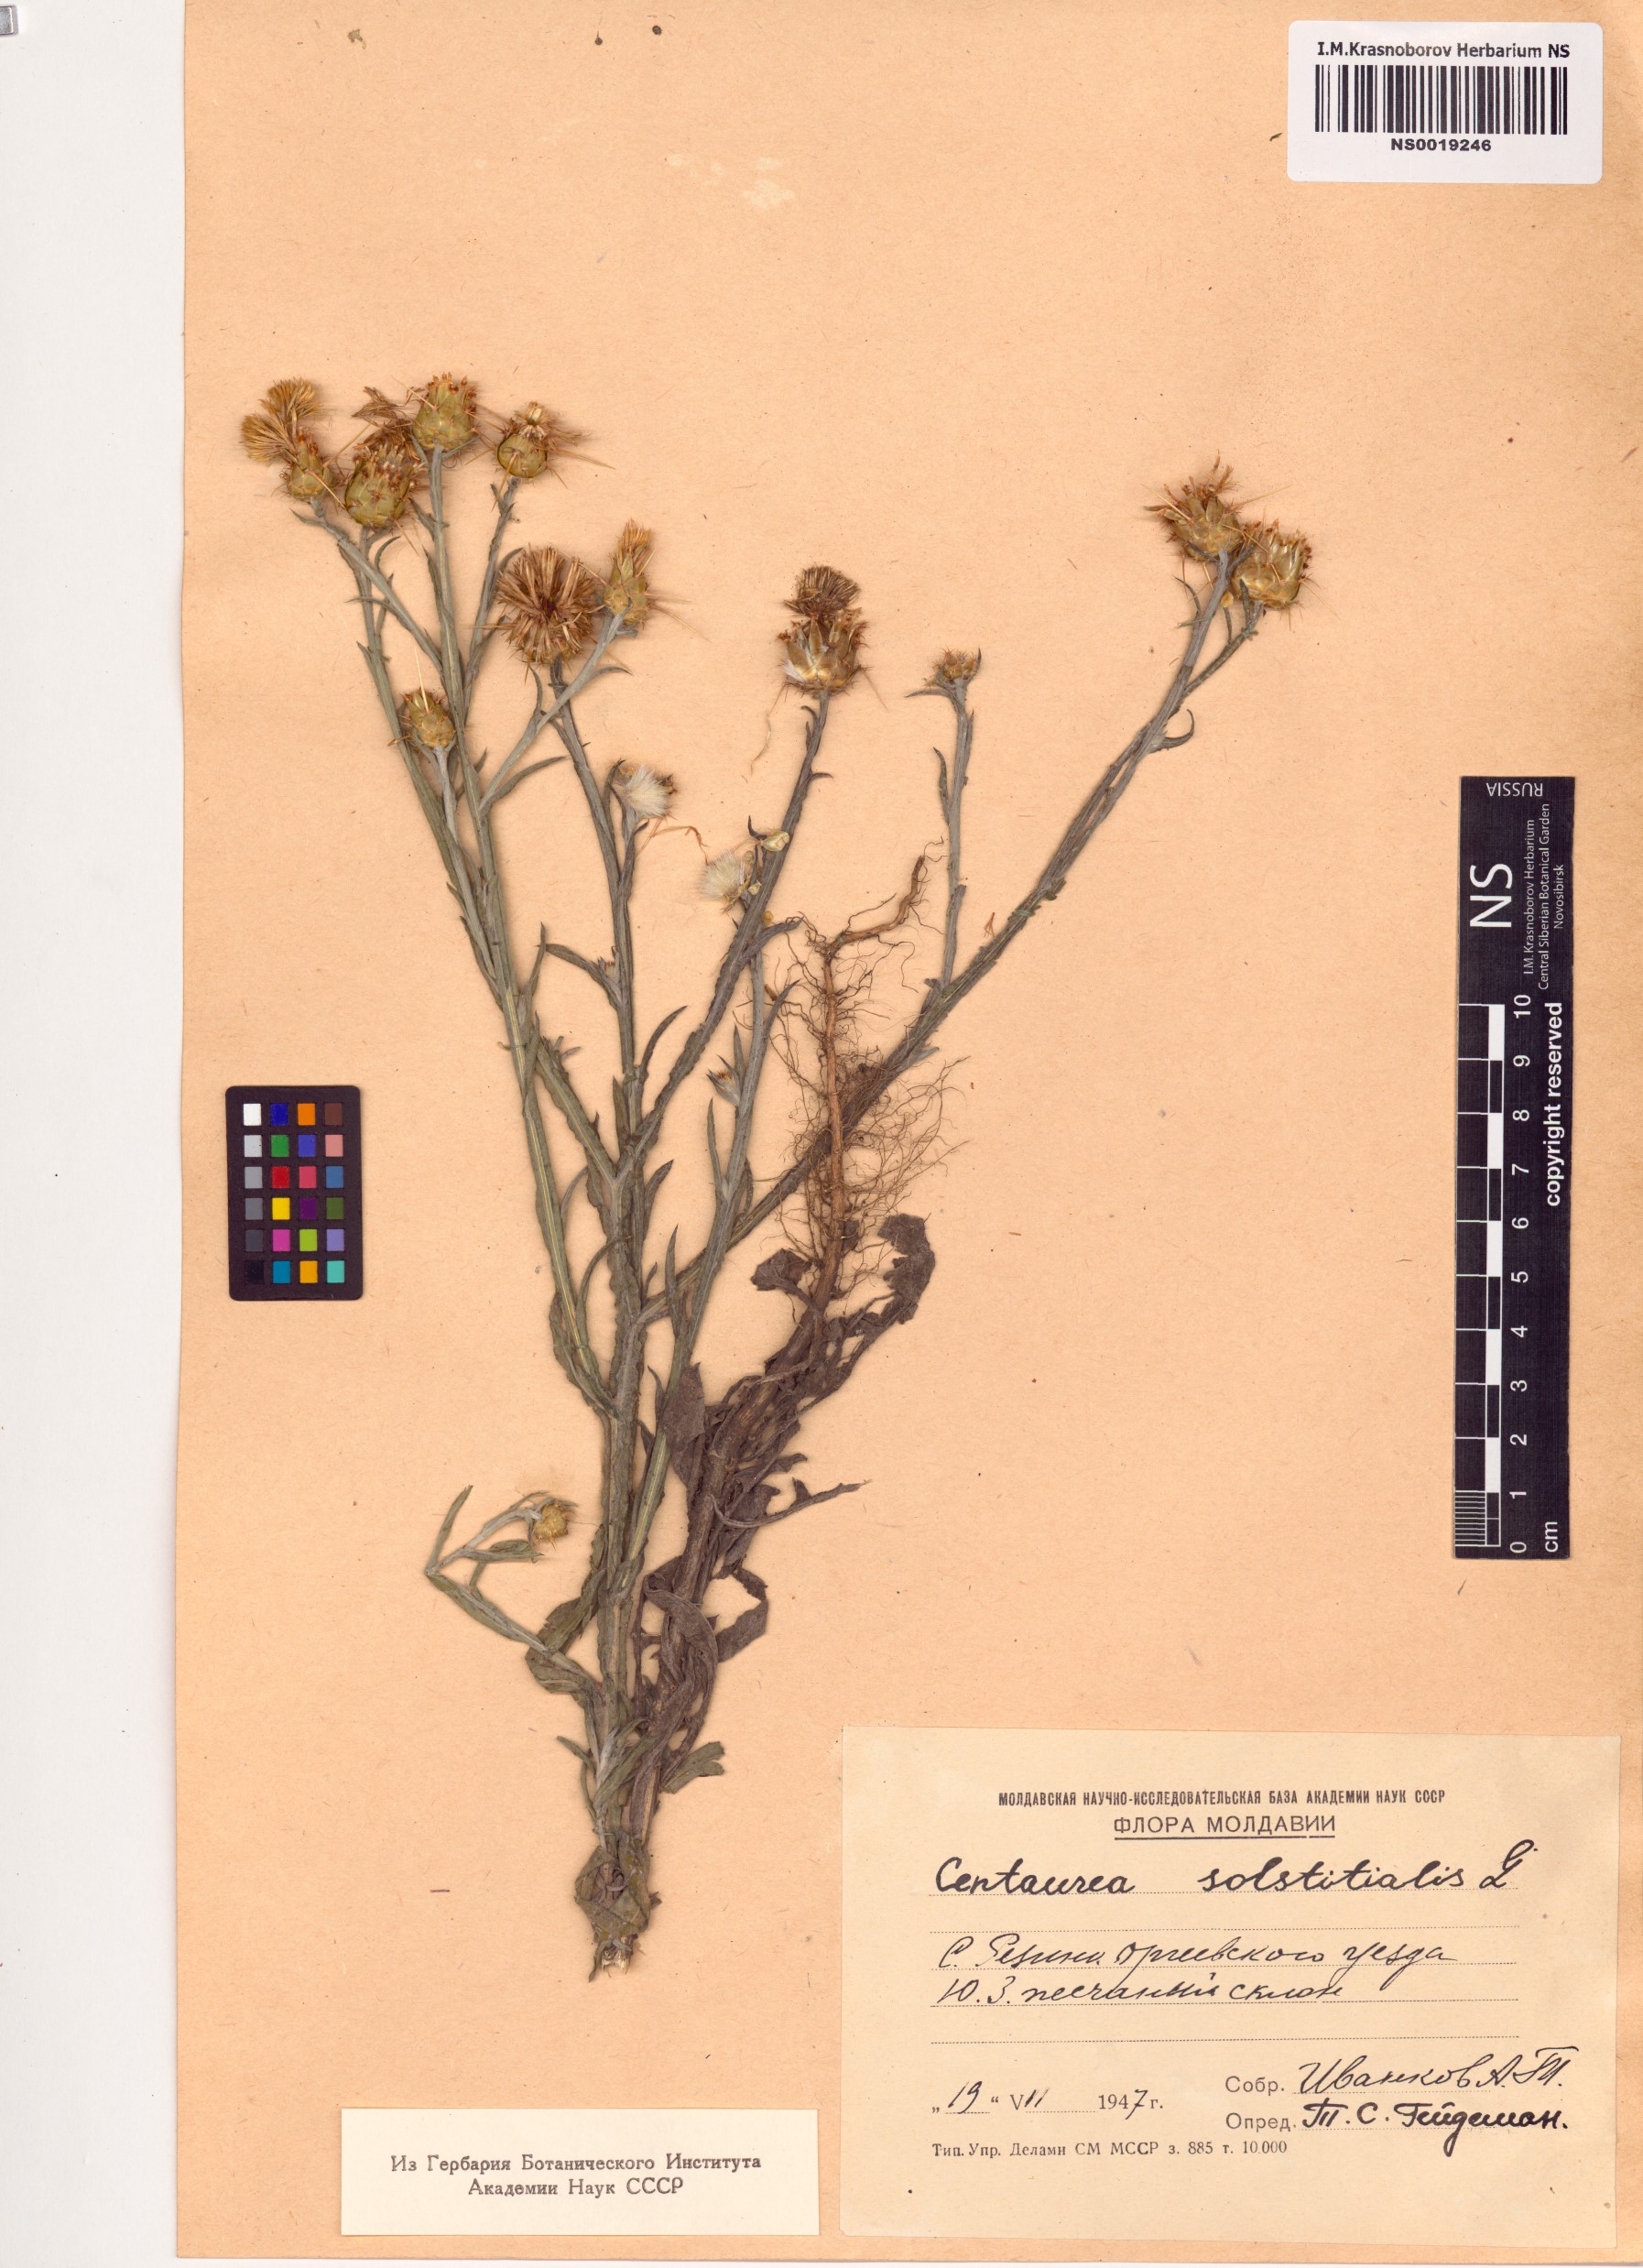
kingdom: Plantae
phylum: Tracheophyta
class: Magnoliopsida
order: Asterales
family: Asteraceae
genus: Centaurea
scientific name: Centaurea solstitialis
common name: Yellow star-thistle
